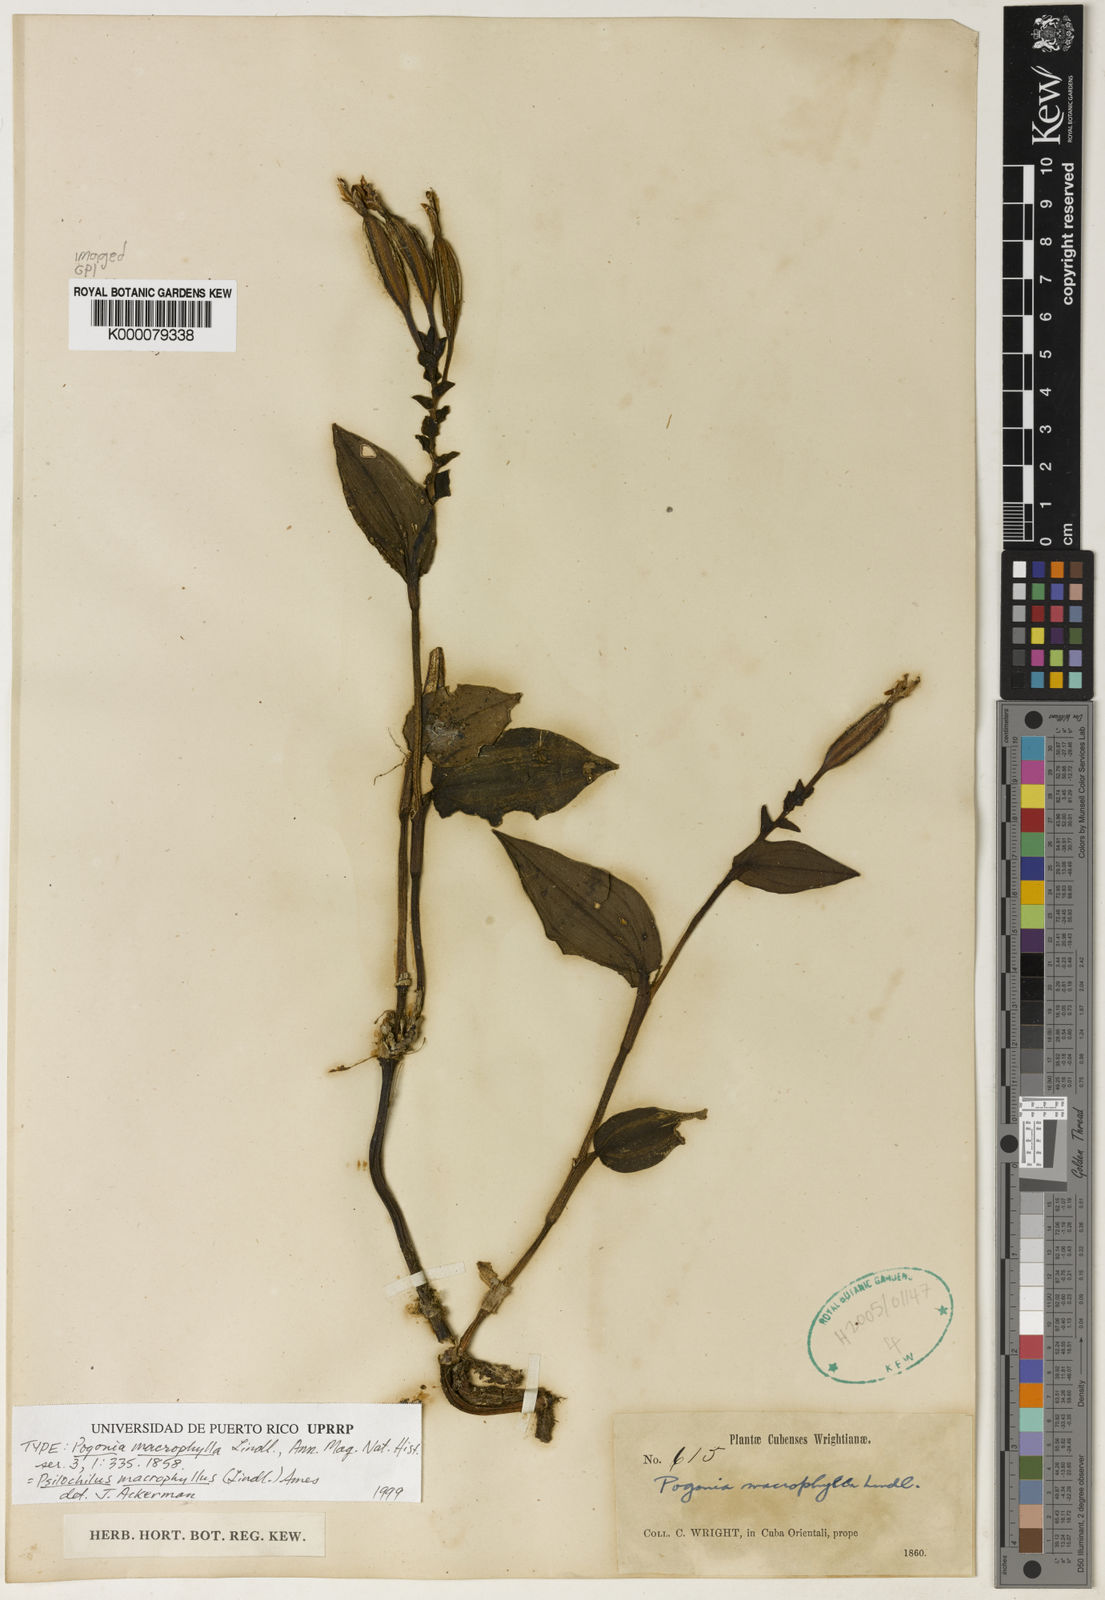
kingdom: Plantae
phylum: Tracheophyta
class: Liliopsida
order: Asparagales
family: Orchidaceae
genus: Psilochilus
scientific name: Psilochilus macrophyllus
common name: Raggedlip orchid
